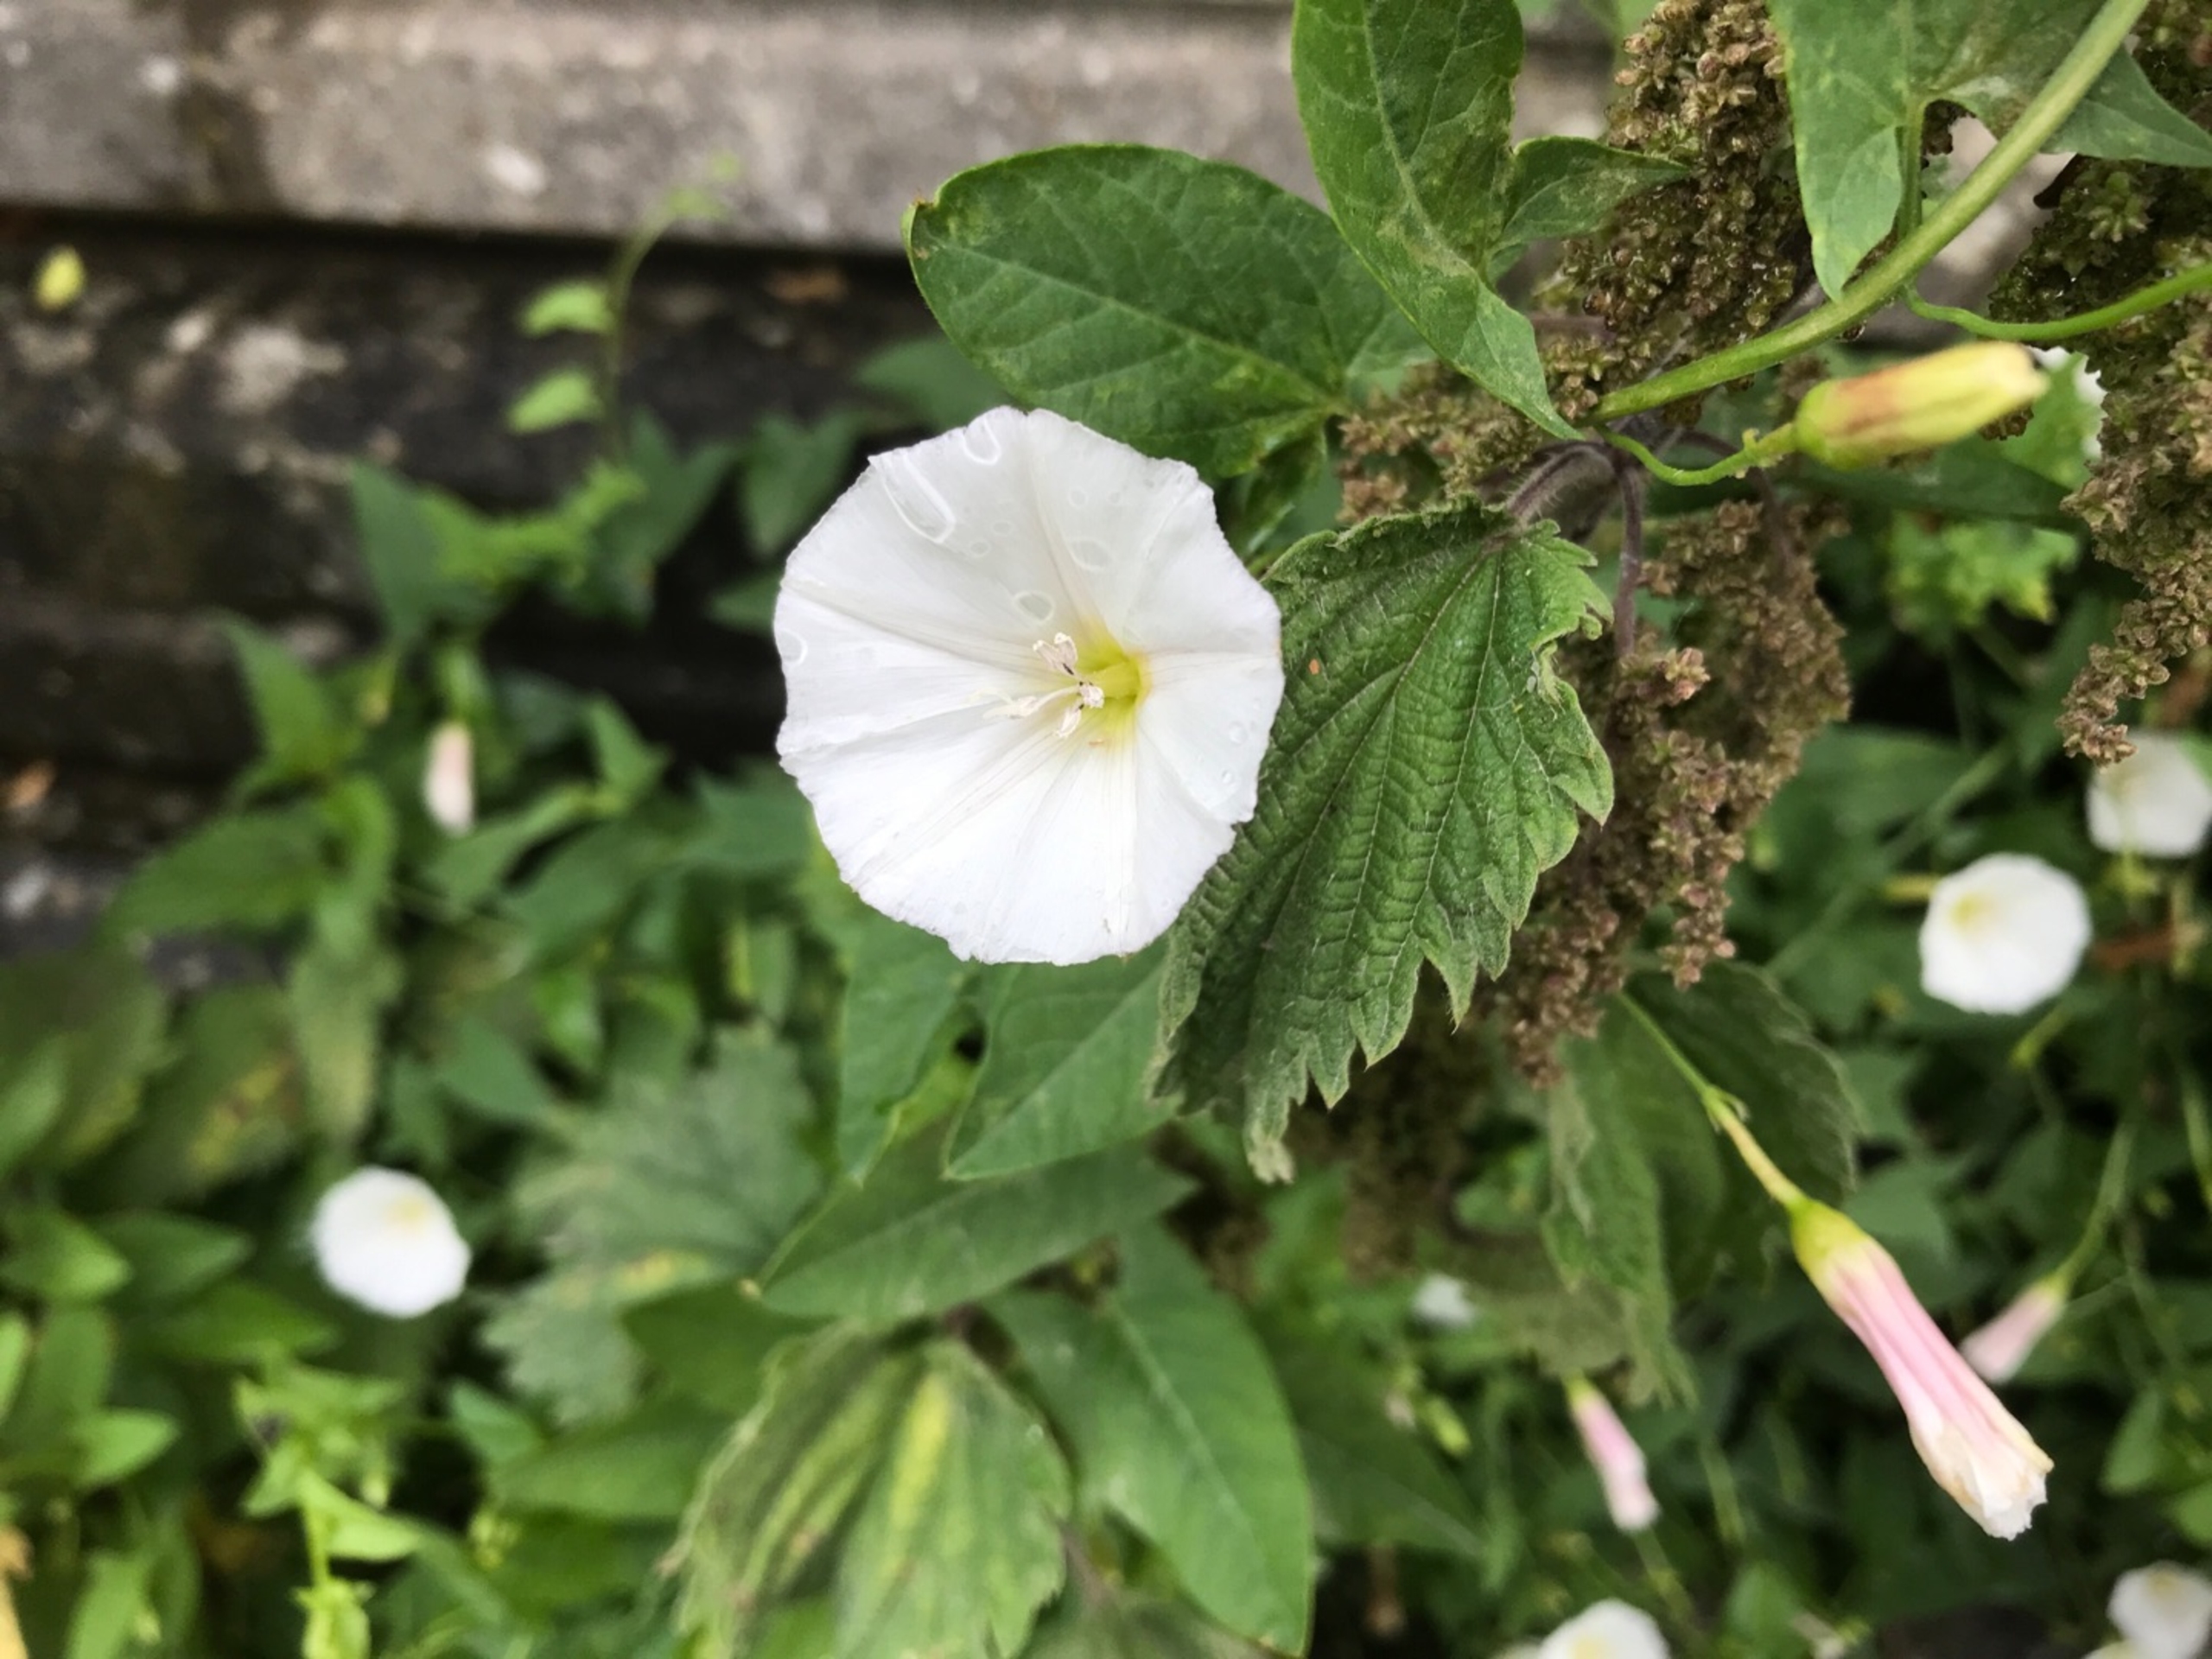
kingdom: Plantae
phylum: Tracheophyta
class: Magnoliopsida
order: Solanales
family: Convolvulaceae
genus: Convolvulus
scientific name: Convolvulus arvensis
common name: Ager-snerle
